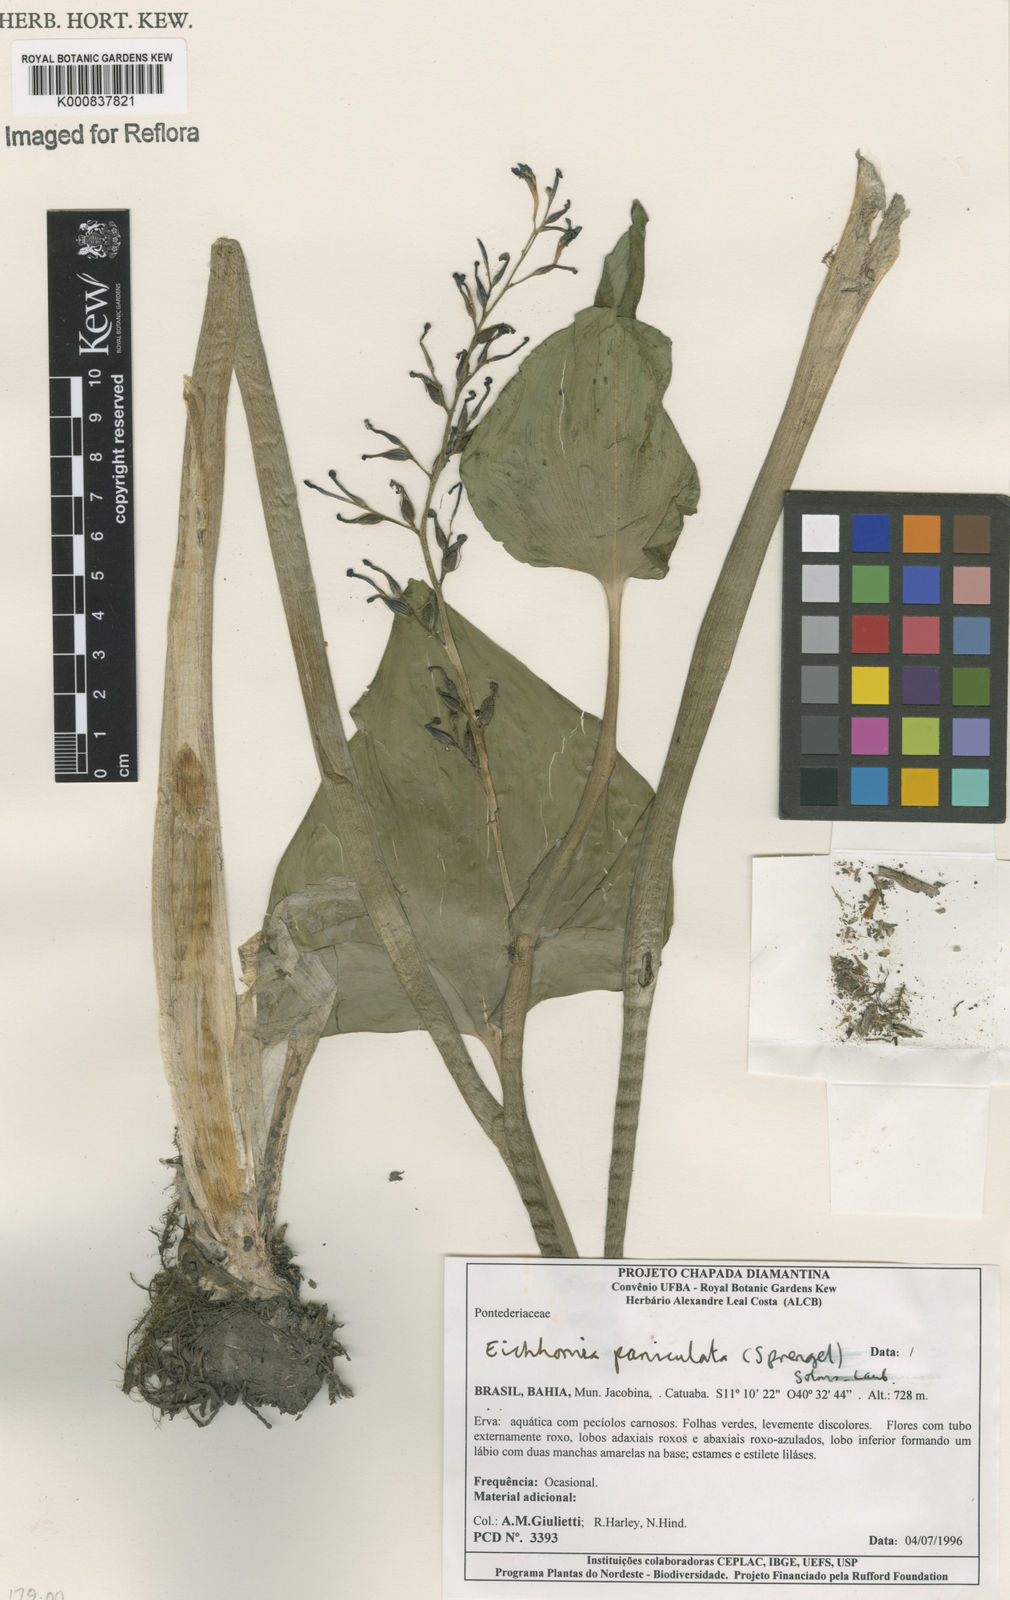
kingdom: Plantae
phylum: Tracheophyta
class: Liliopsida
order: Commelinales
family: Pontederiaceae
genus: Pontederia
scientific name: Pontederia paniculata
